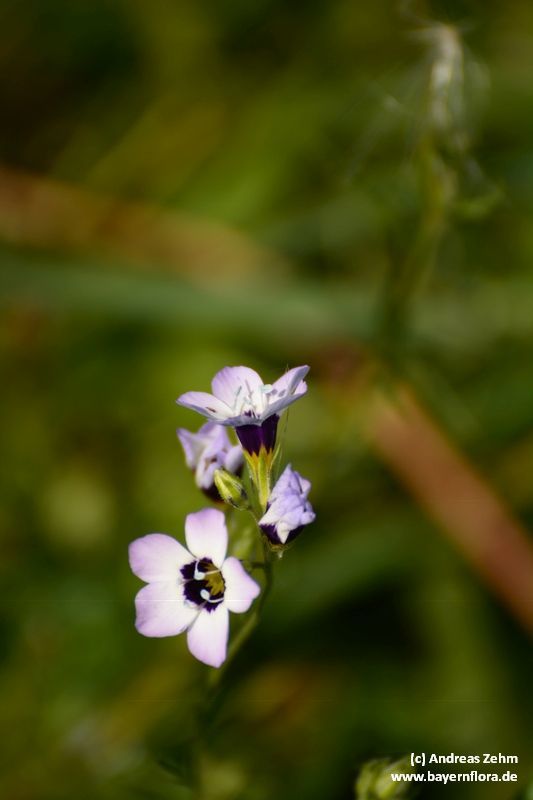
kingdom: Plantae
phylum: Tracheophyta
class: Magnoliopsida
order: Ericales
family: Polemoniaceae
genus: Gilia
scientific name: Gilia tricolor
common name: Bird's-eyes
